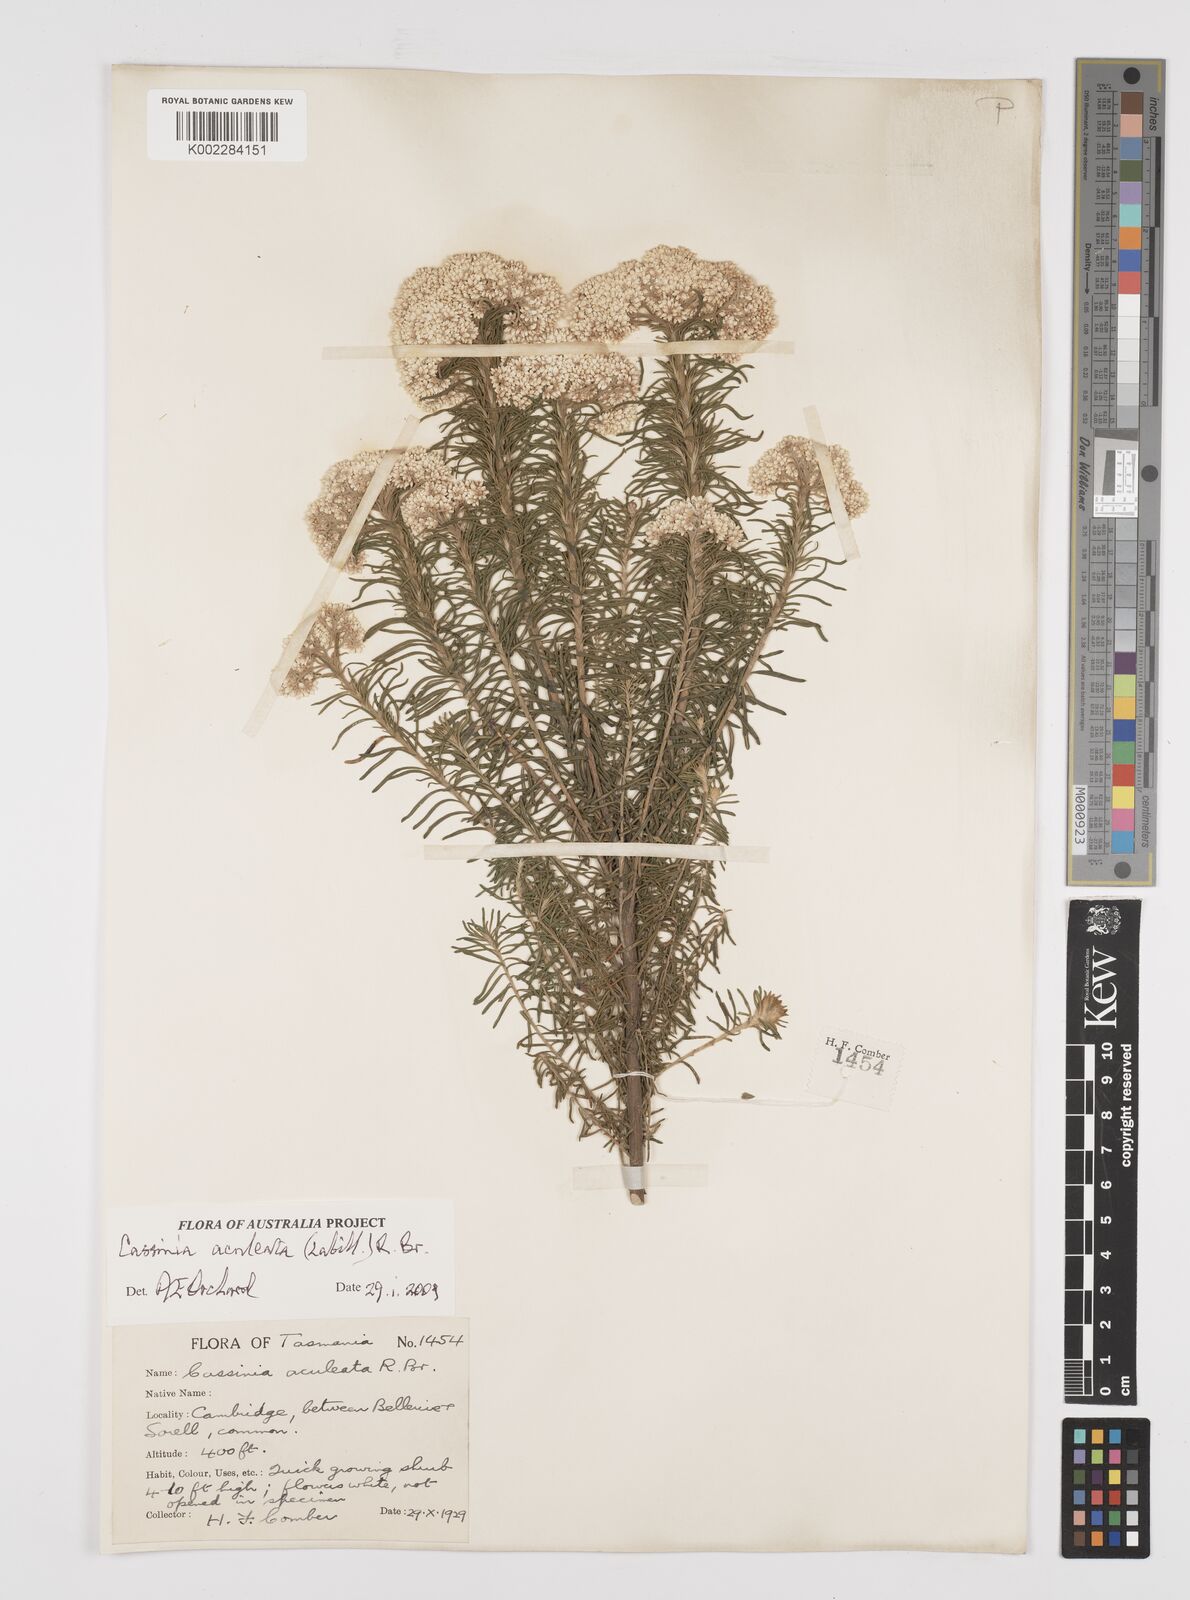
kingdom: Plantae
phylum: Tracheophyta
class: Magnoliopsida
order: Asterales
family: Asteraceae
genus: Cassinia
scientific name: Cassinia aculeata
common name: Australian tauhinu
